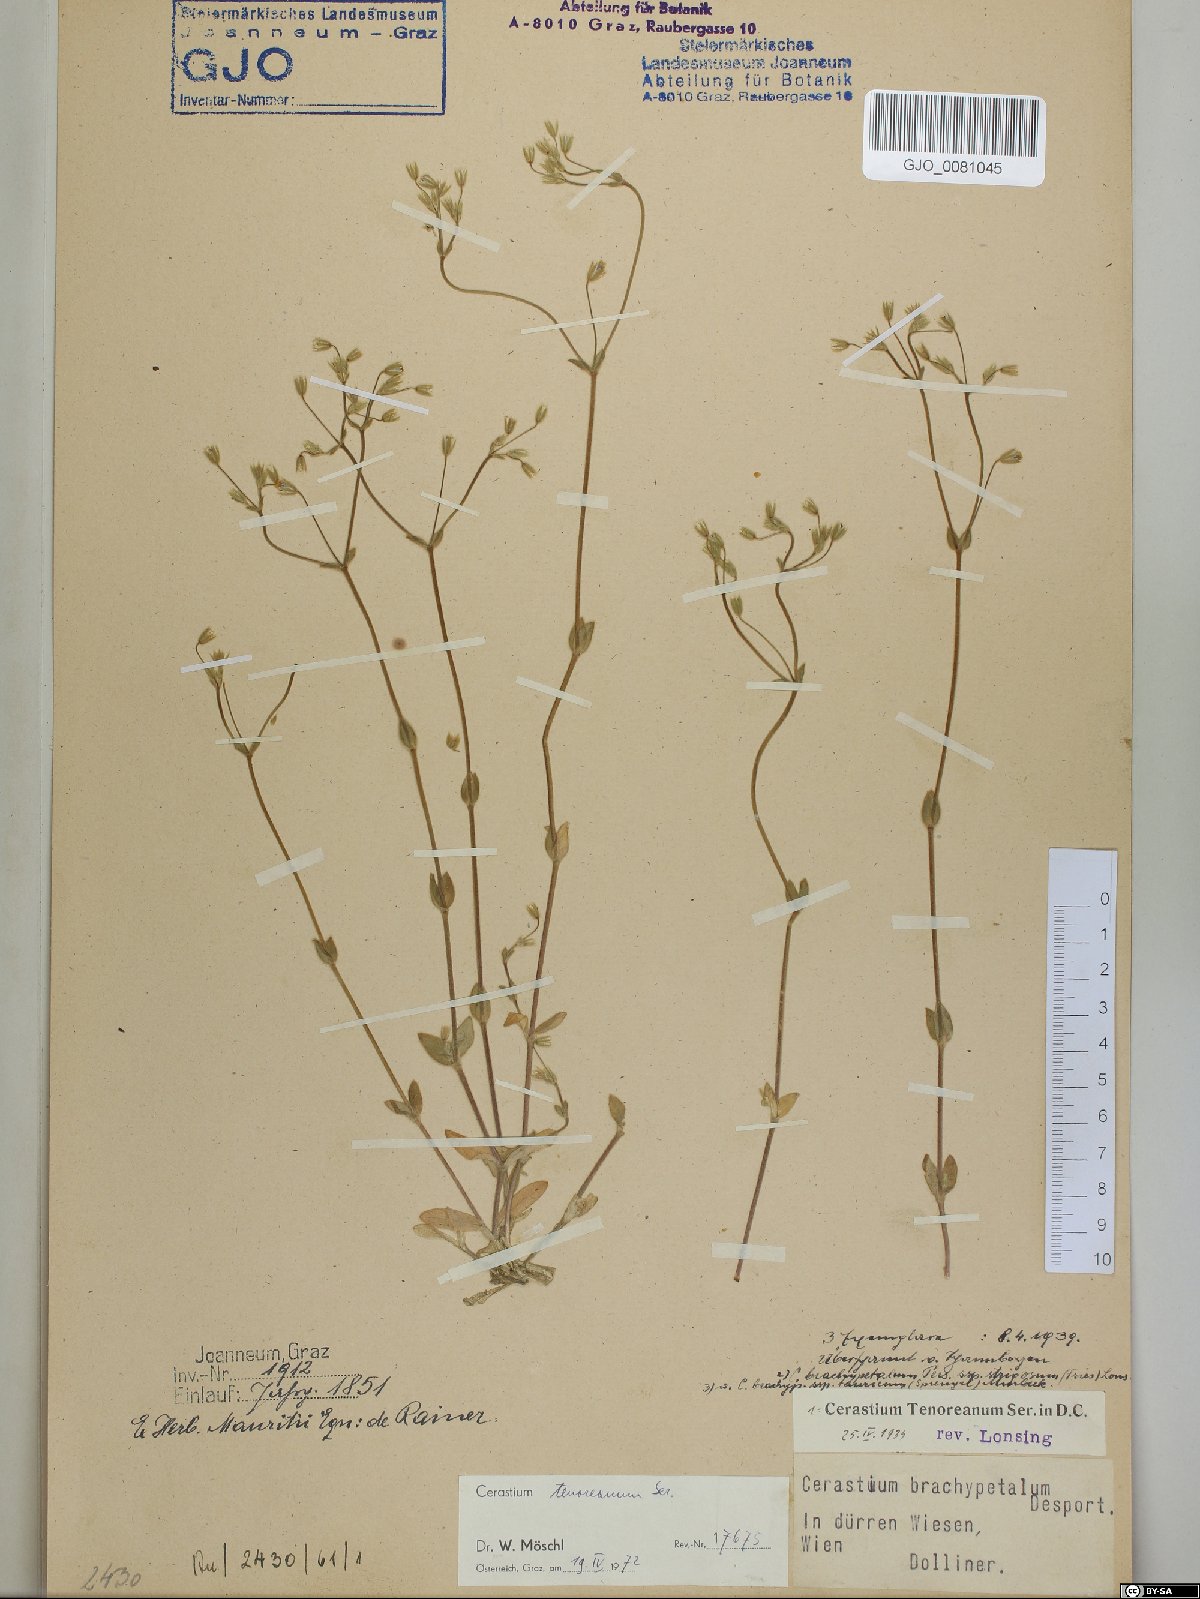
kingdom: Plantae
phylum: Tracheophyta
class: Magnoliopsida
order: Caryophyllales
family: Caryophyllaceae
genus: Cerastium
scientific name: Cerastium tenoreanum
